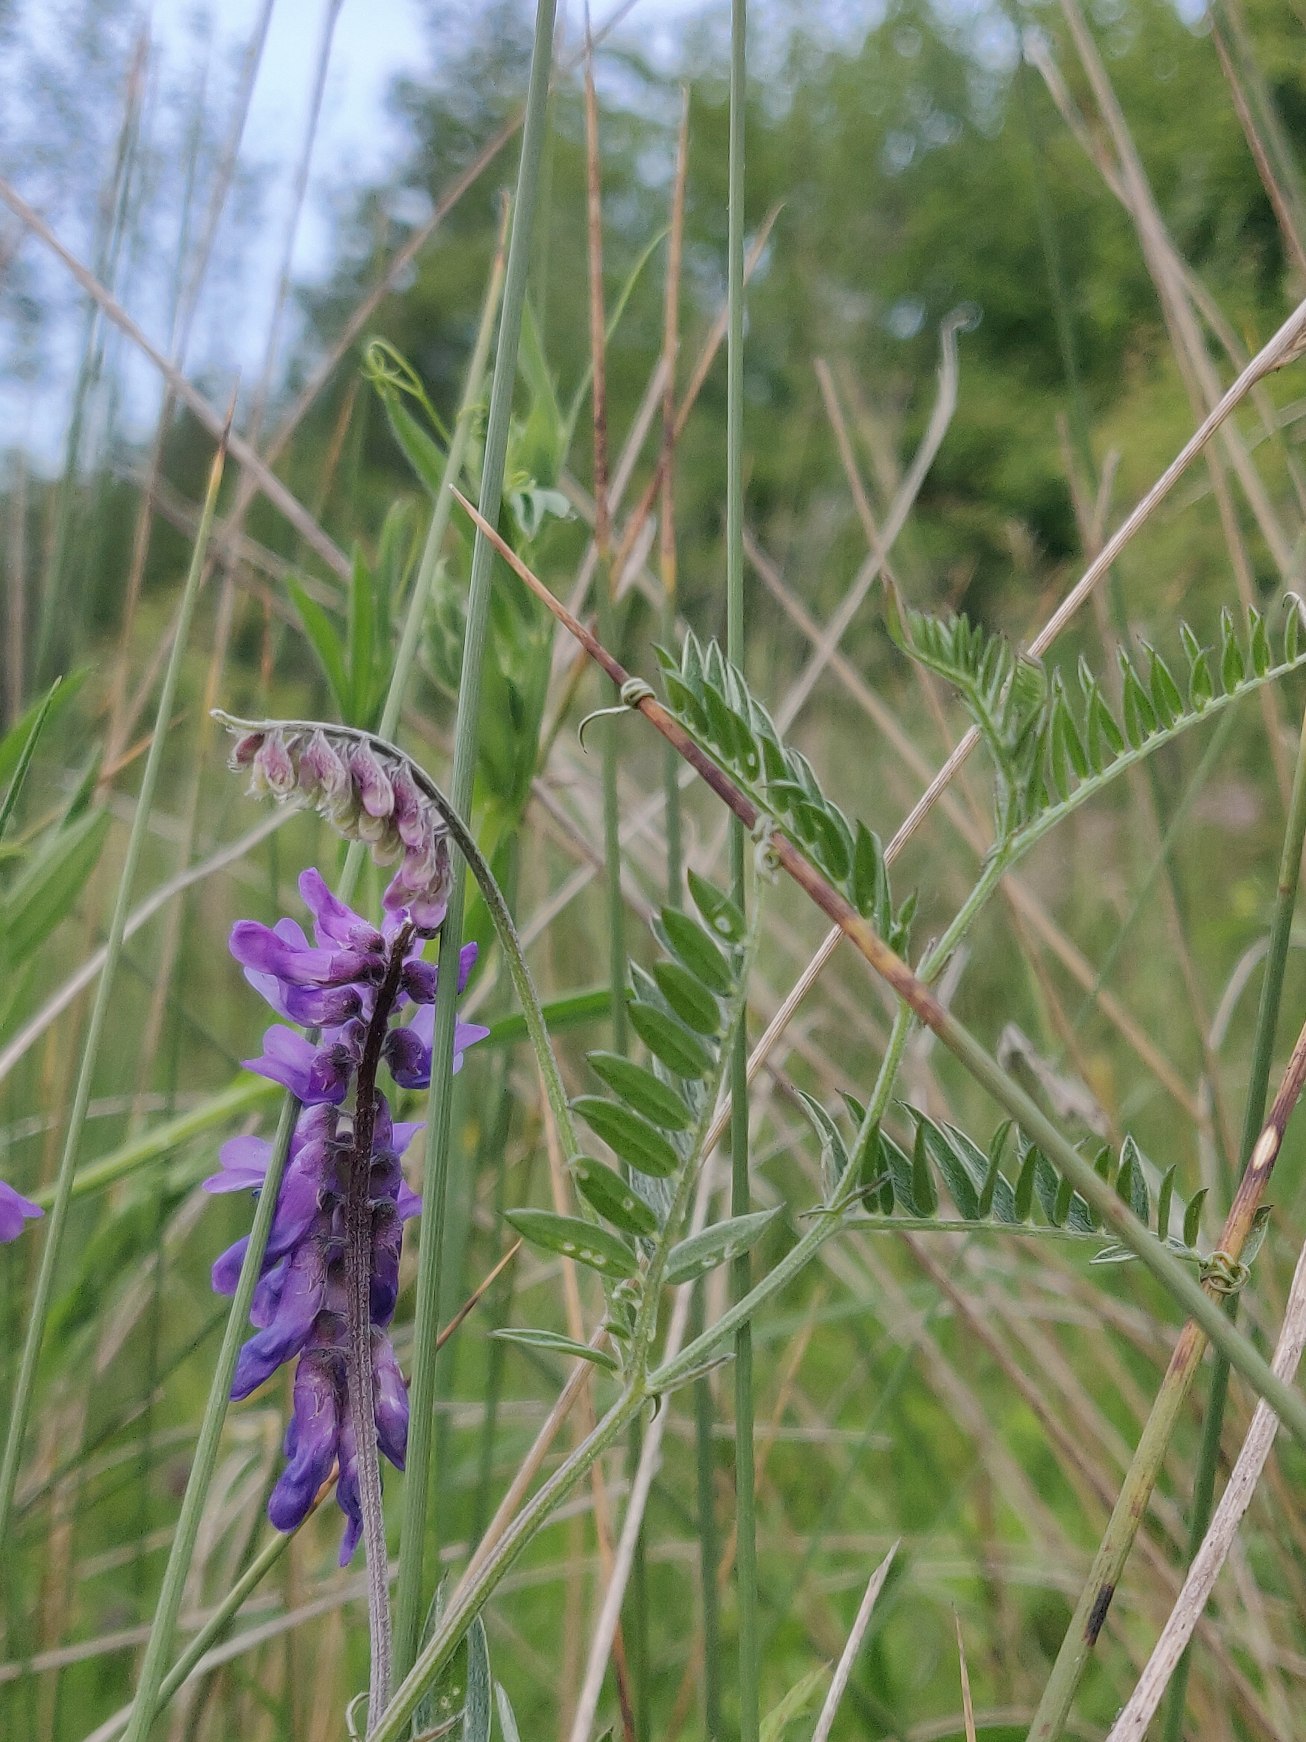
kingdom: Plantae
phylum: Tracheophyta
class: Magnoliopsida
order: Fabales
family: Fabaceae
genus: Vicia
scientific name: Vicia cracca
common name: Muse-vikke
